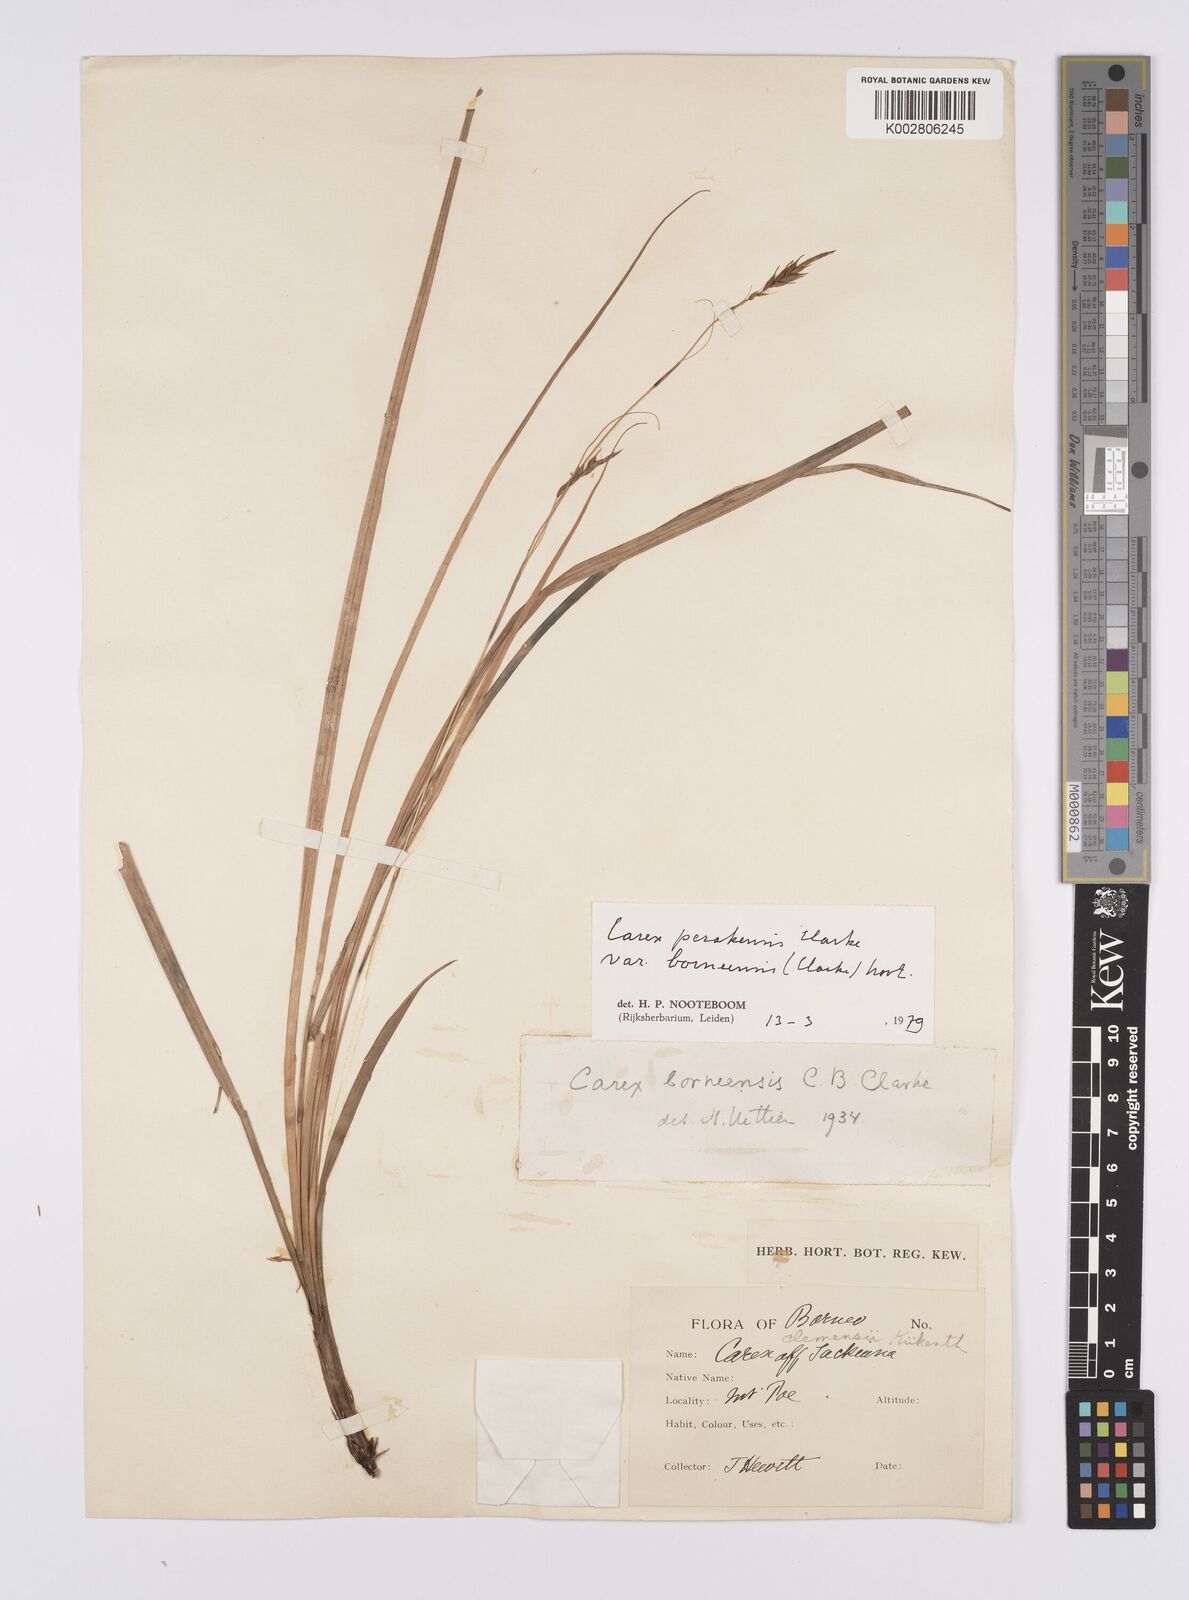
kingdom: Plantae
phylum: Tracheophyta
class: Liliopsida
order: Poales
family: Cyperaceae
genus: Carex
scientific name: Carex perakensis
